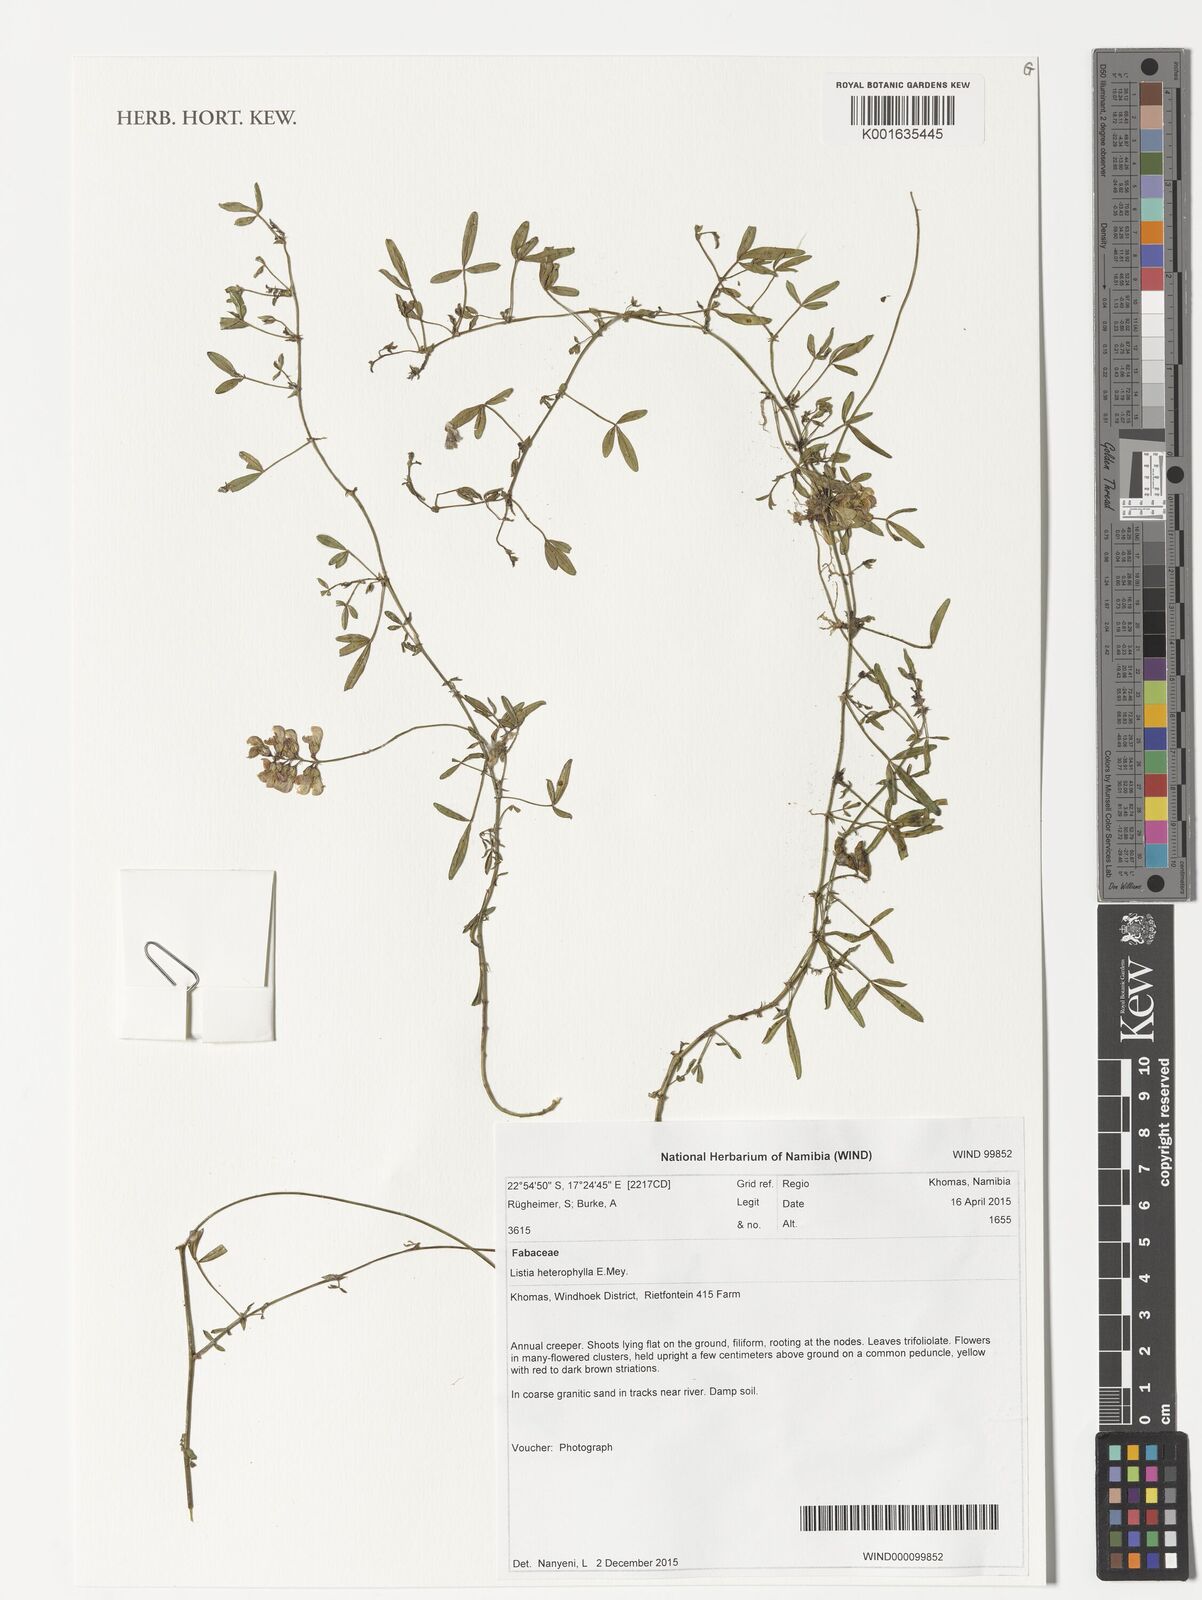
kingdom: Plantae
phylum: Tracheophyta
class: Magnoliopsida
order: Fabales
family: Fabaceae
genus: Listia
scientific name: Listia heterophylla
